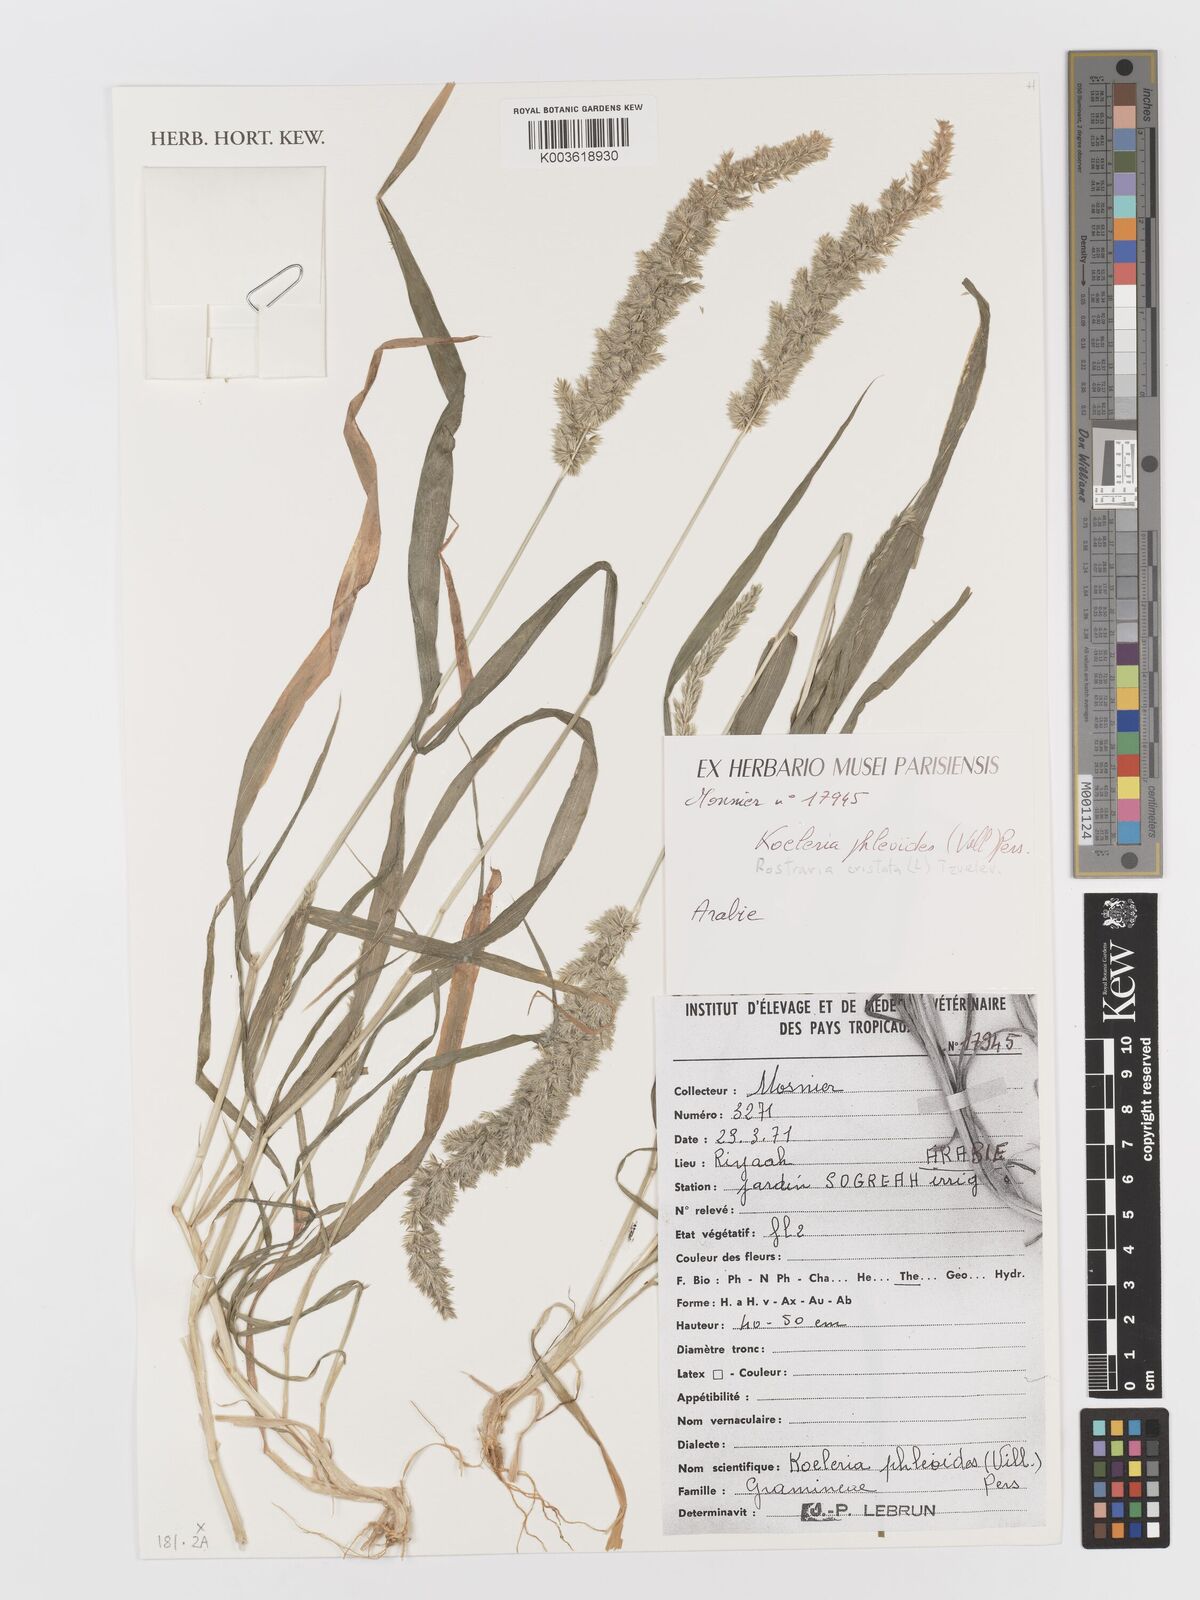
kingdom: Plantae
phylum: Tracheophyta
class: Liliopsida
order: Poales
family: Poaceae
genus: Rostraria
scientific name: Rostraria cristata
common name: Mediterranean hair-grass
